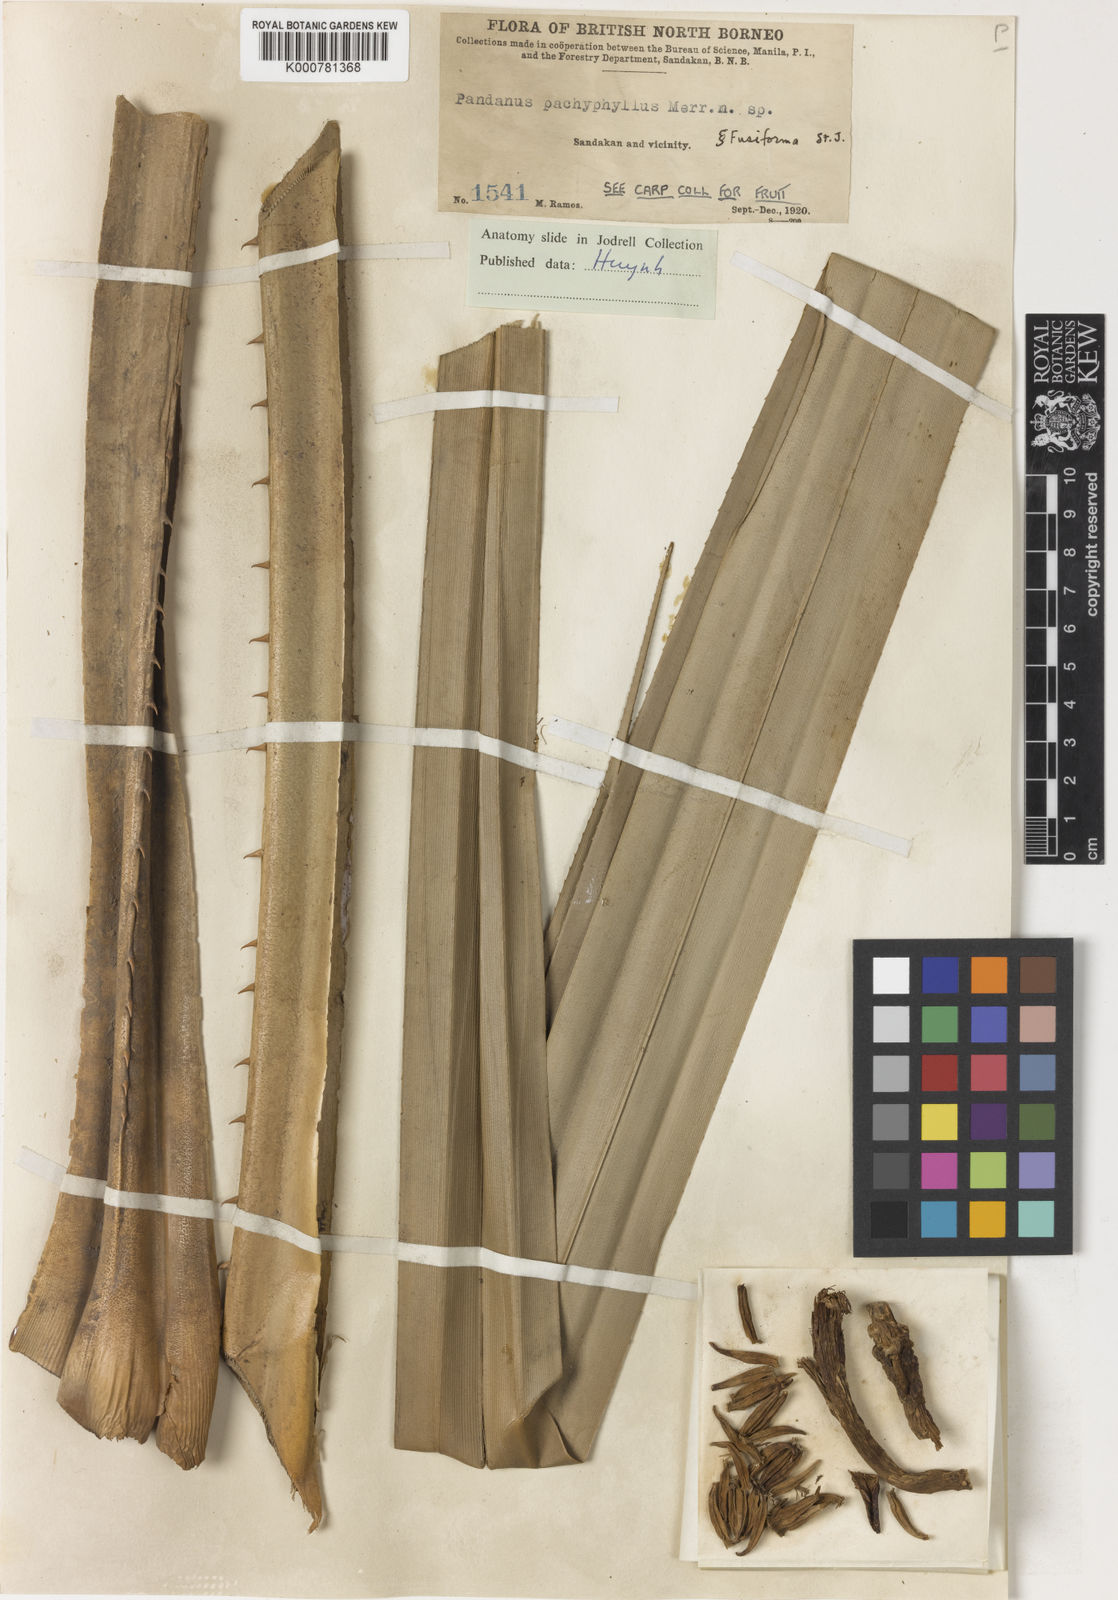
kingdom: Plantae
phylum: Tracheophyta
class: Liliopsida
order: Pandanales
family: Pandanaceae
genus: Benstonea
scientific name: Benstonea pachyphylla
